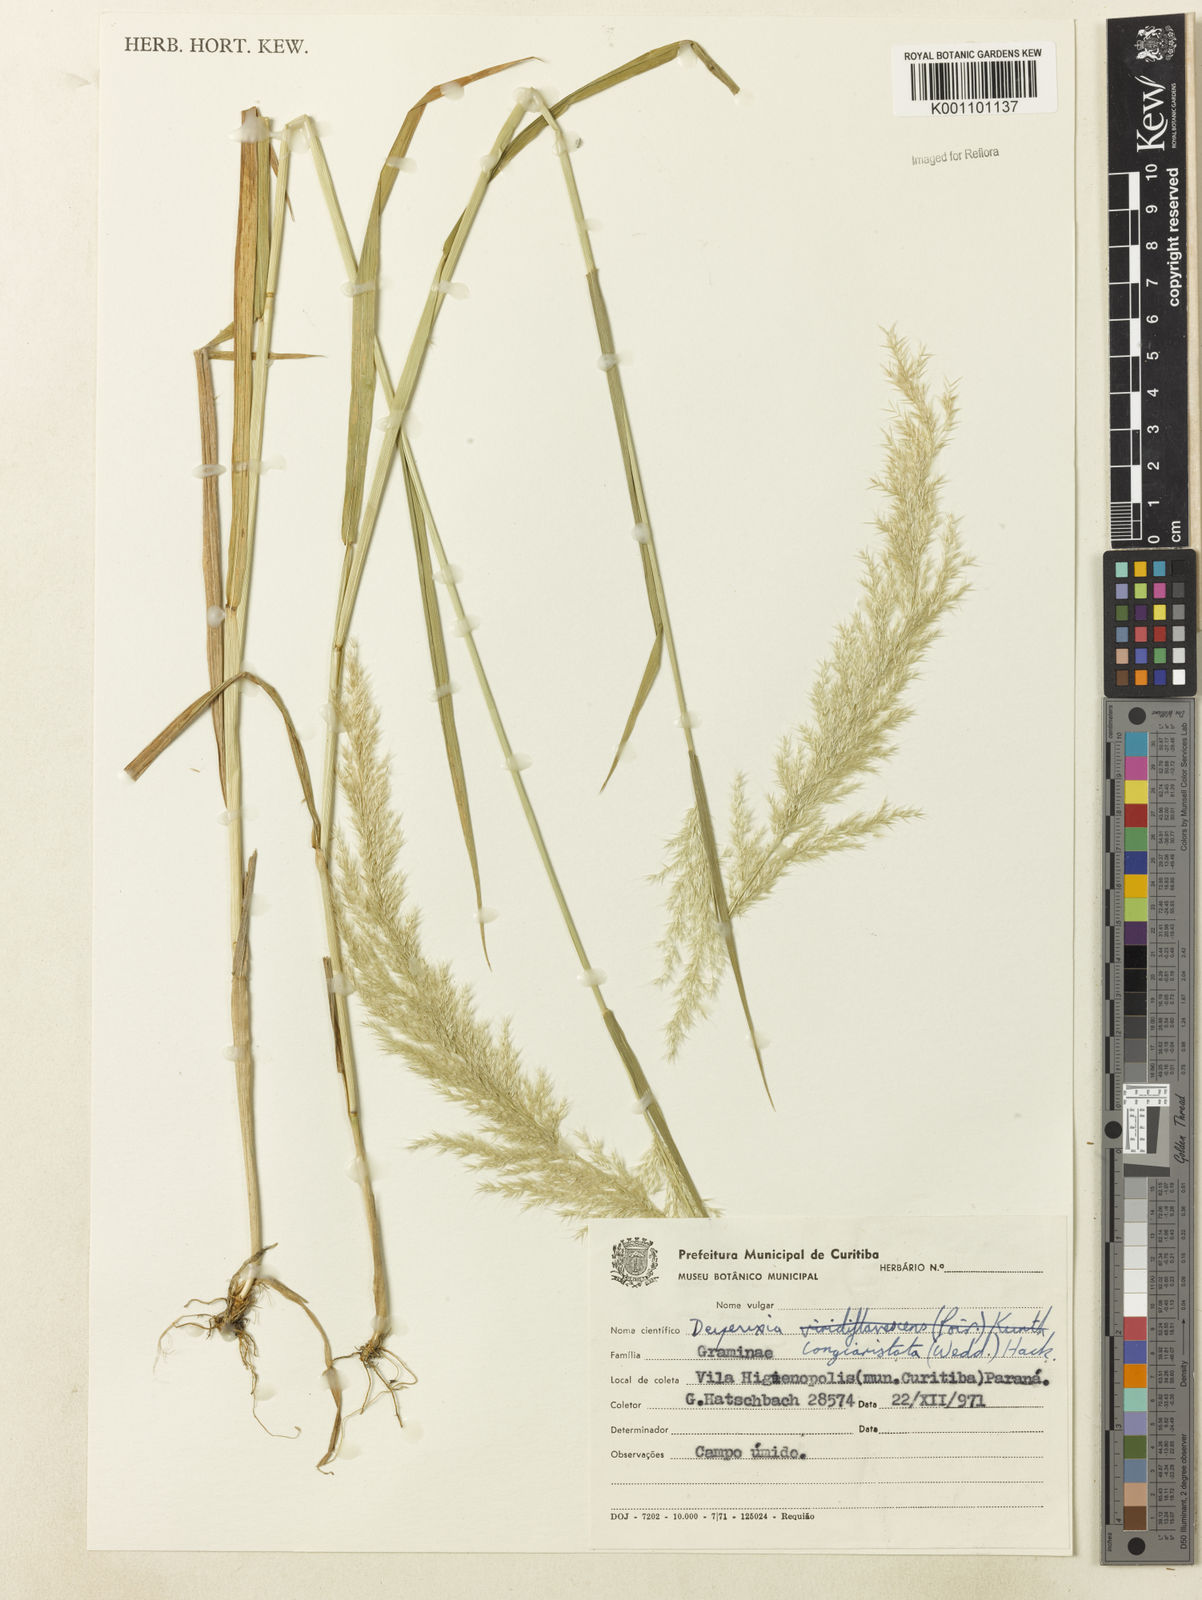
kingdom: Plantae
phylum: Tracheophyta
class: Liliopsida
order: Poales
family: Poaceae
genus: Cinnagrostis
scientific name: Cinnagrostis rupestris
